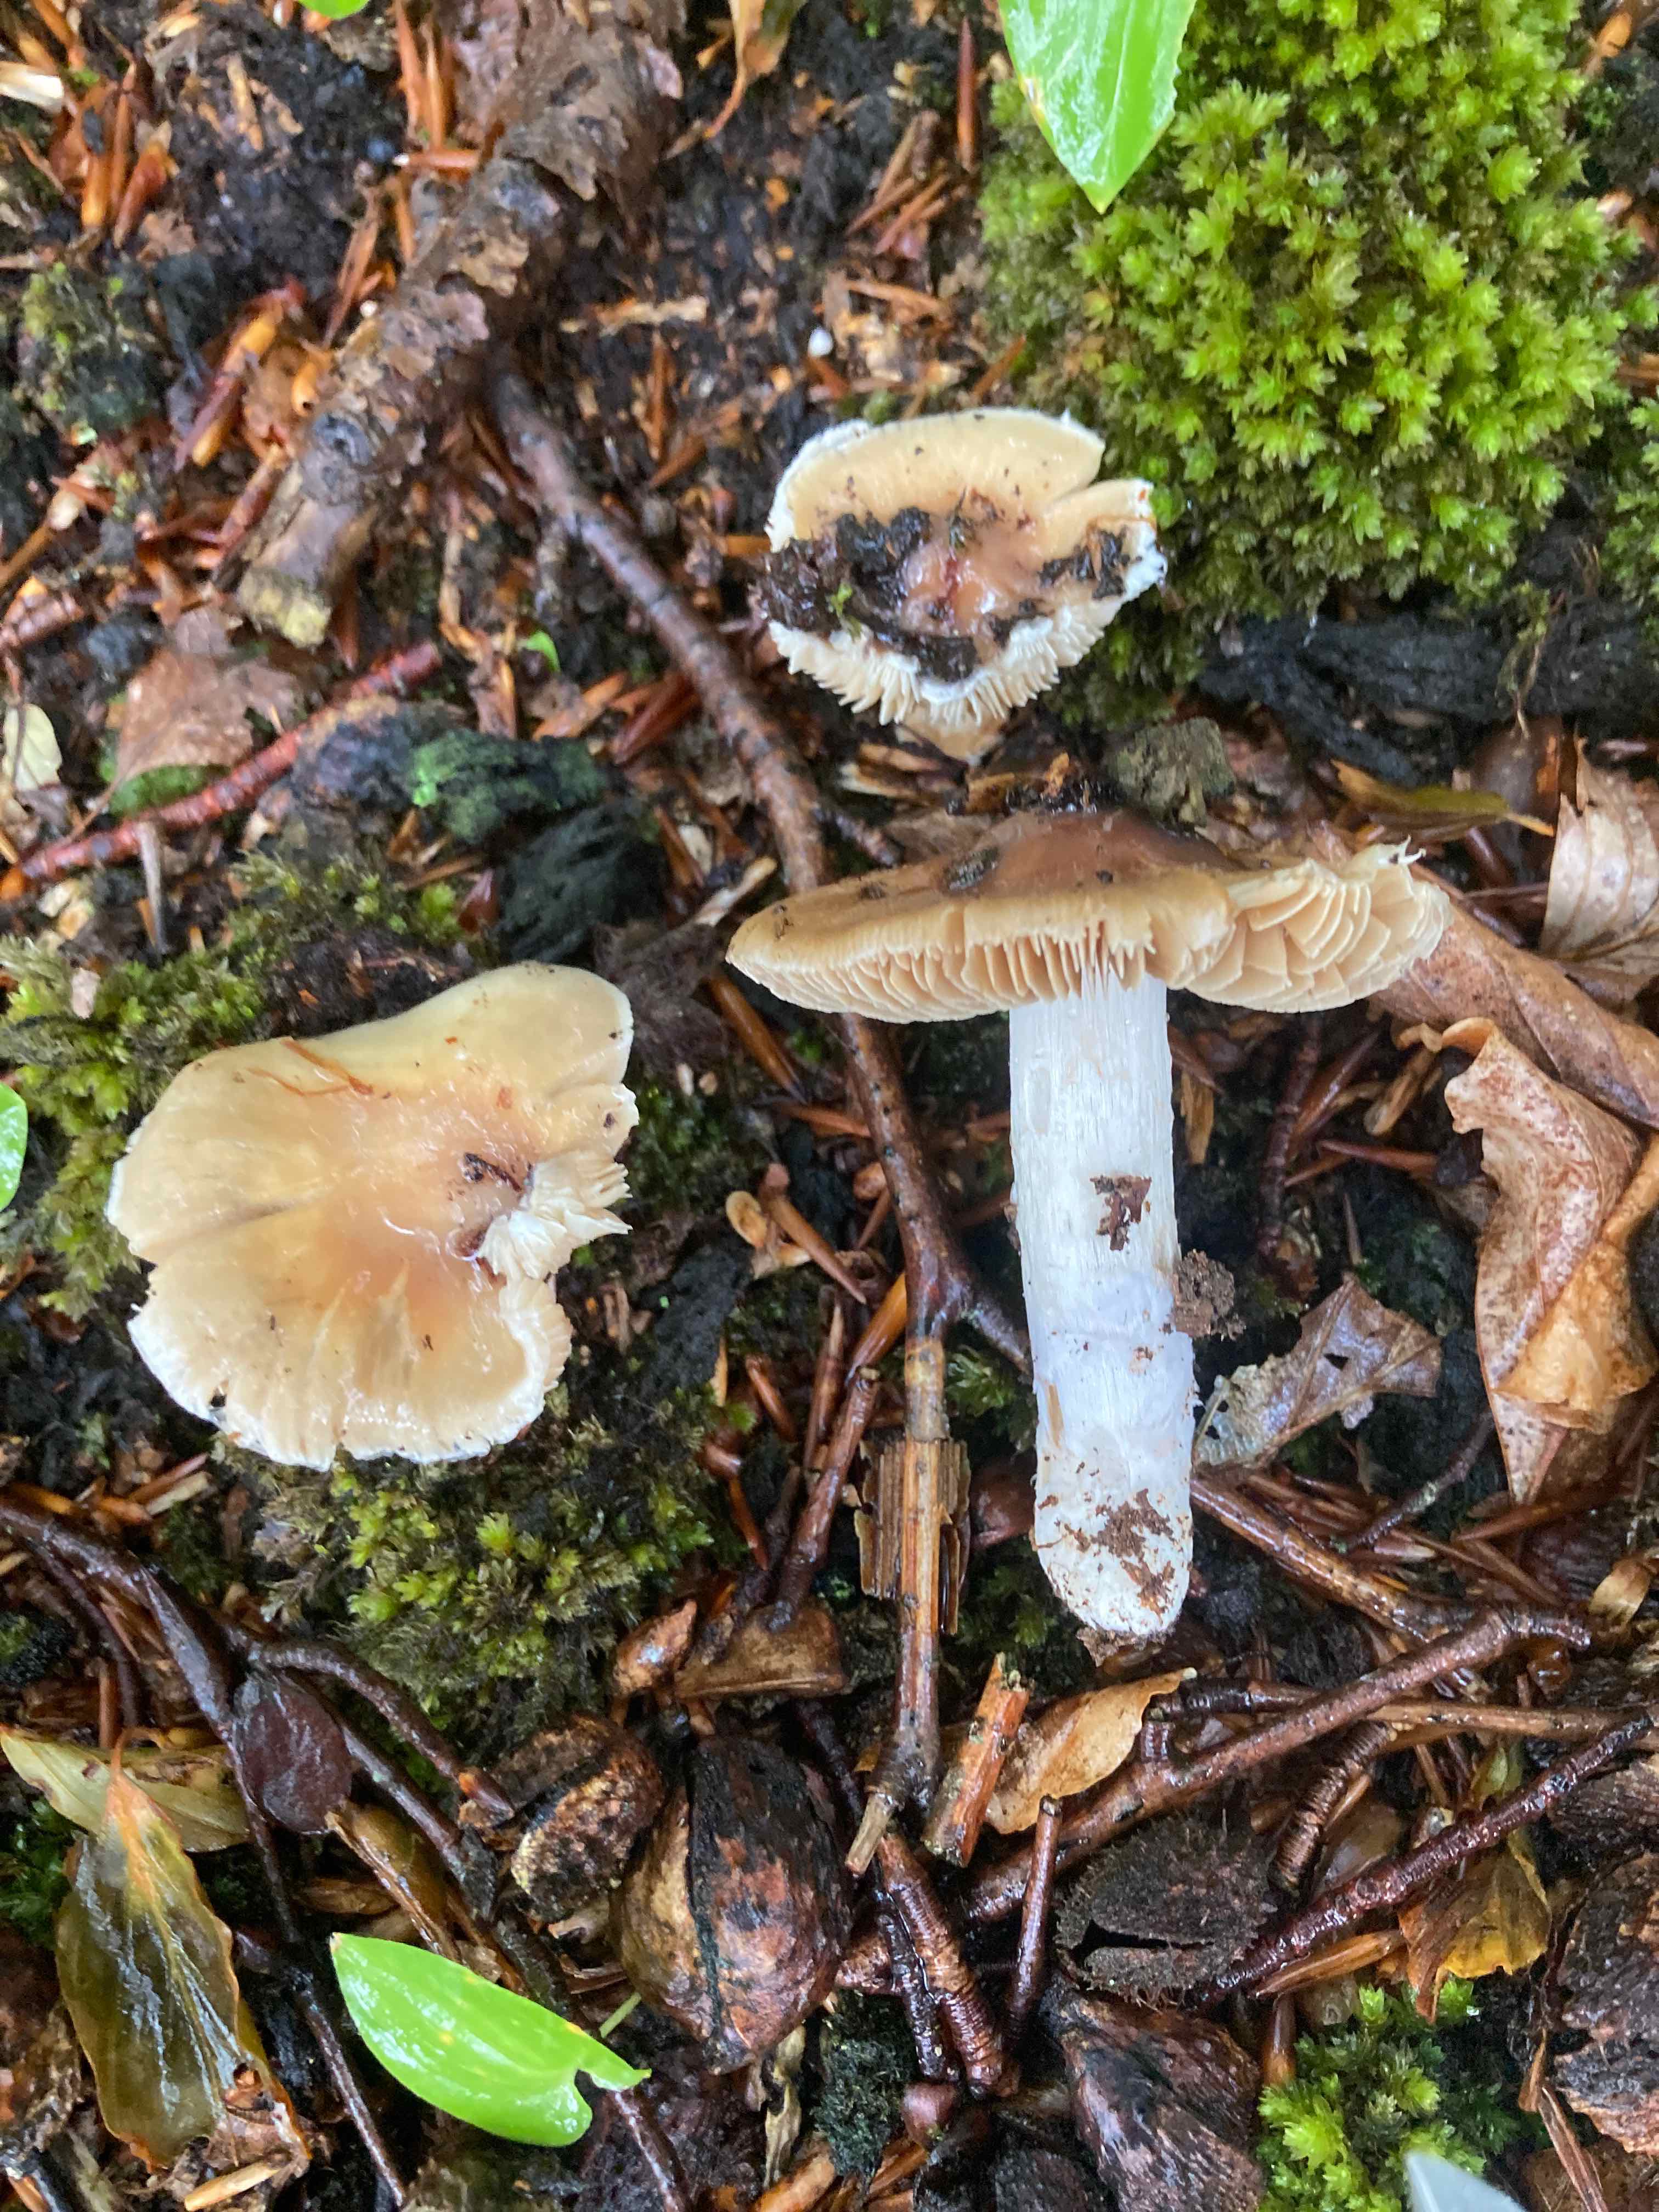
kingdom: Fungi
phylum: Basidiomycota
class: Agaricomycetes
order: Agaricales
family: Cortinariaceae
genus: Cortinarius
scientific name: Cortinarius livido-ochraceus
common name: halvhøj slørhat
